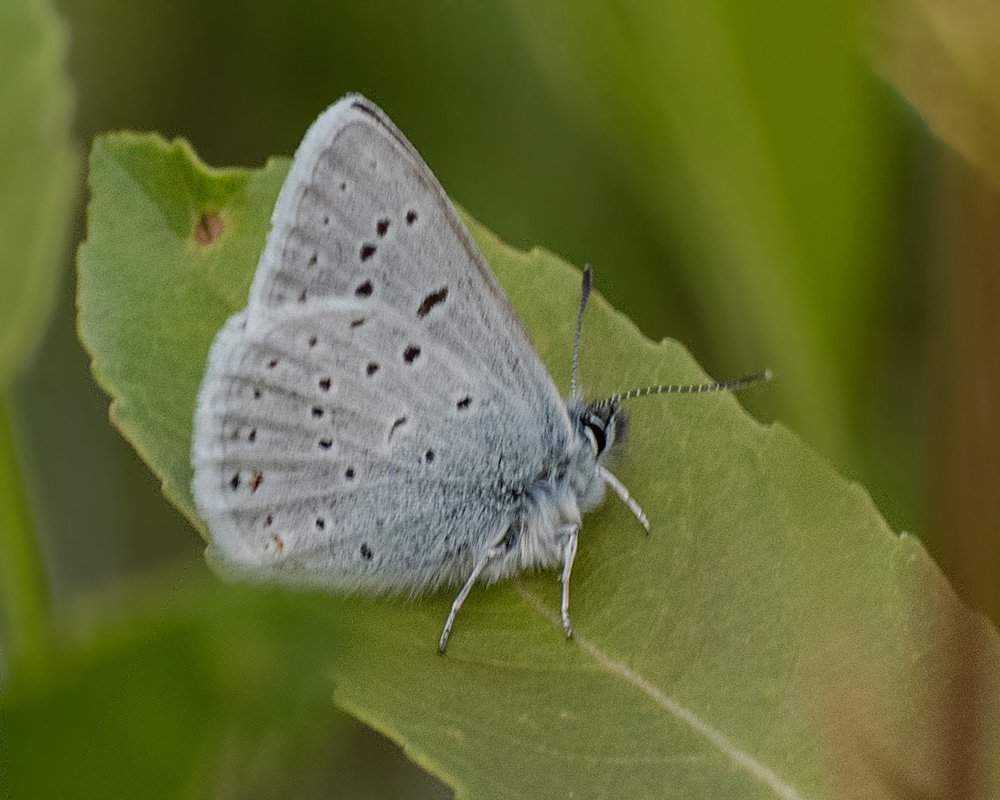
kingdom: Animalia
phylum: Arthropoda
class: Insecta
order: Lepidoptera
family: Hesperiidae
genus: Carterocephalus
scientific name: Carterocephalus palaemon
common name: Chequered Skipper
